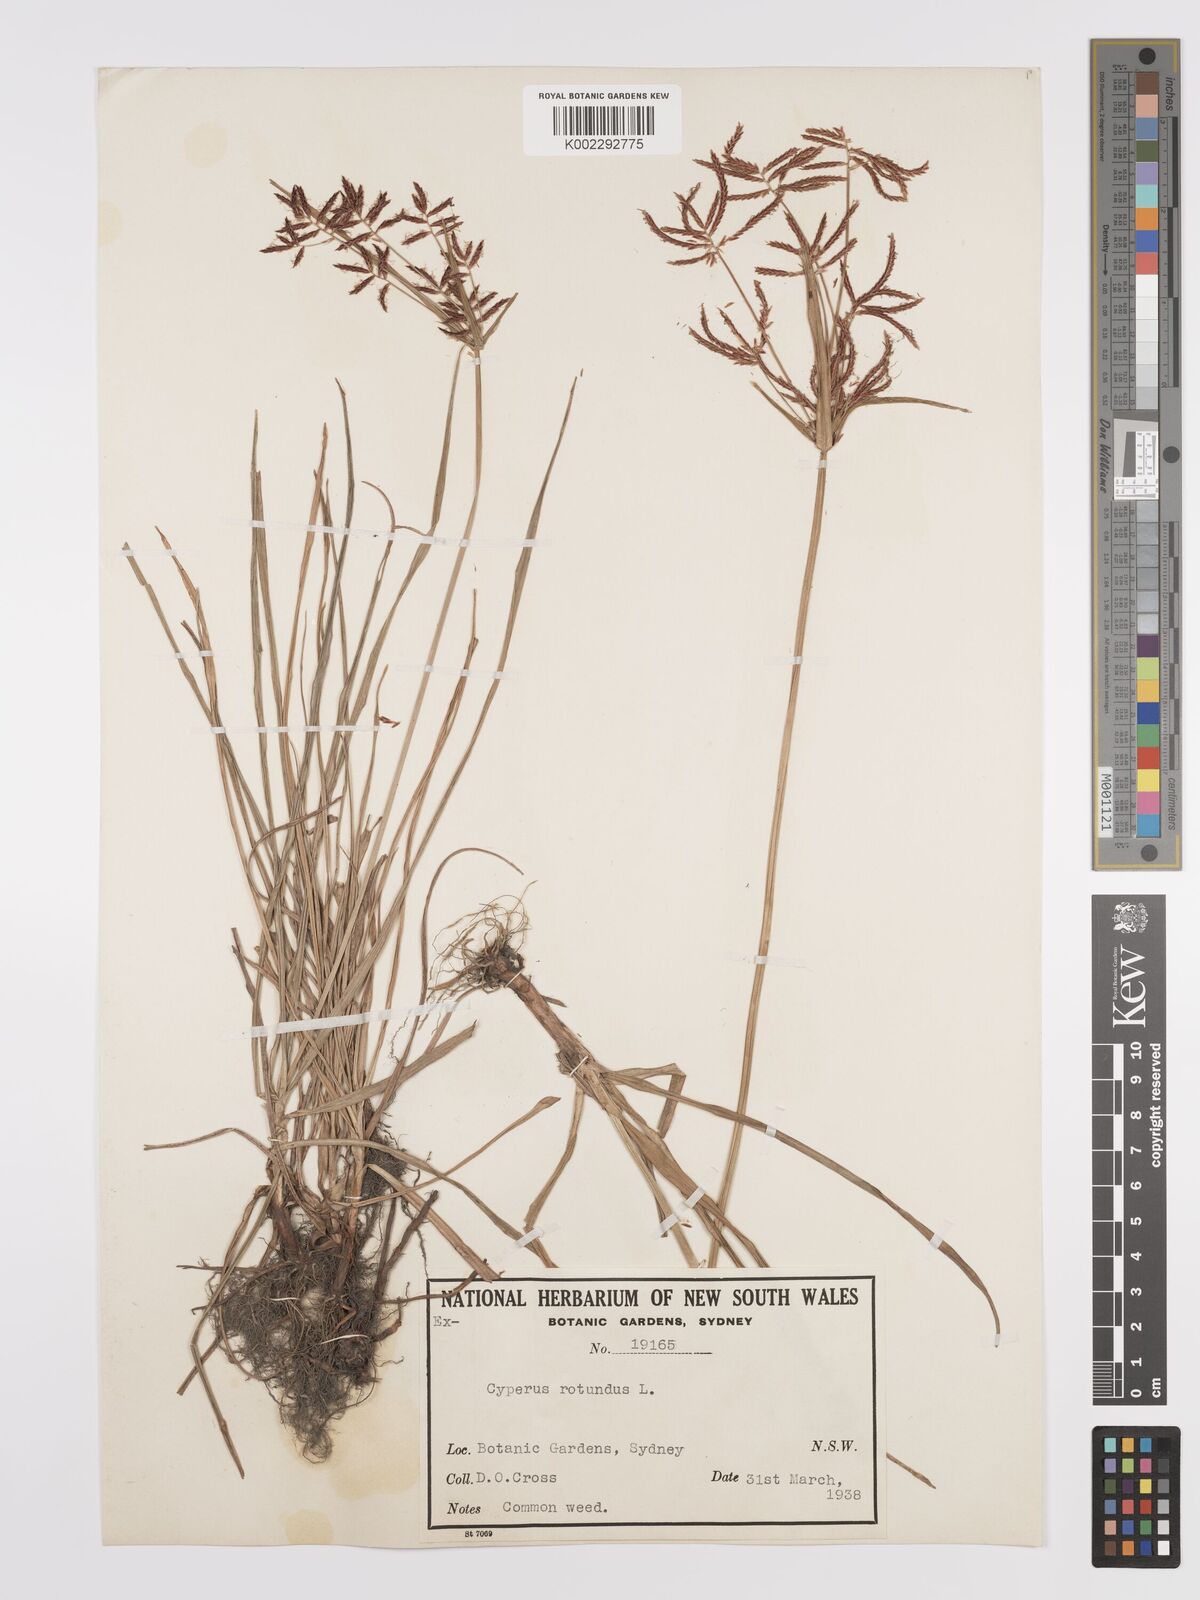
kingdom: Plantae
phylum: Tracheophyta
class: Liliopsida
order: Poales
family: Cyperaceae
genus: Cyperus
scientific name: Cyperus rotundus
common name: Nutgrass
